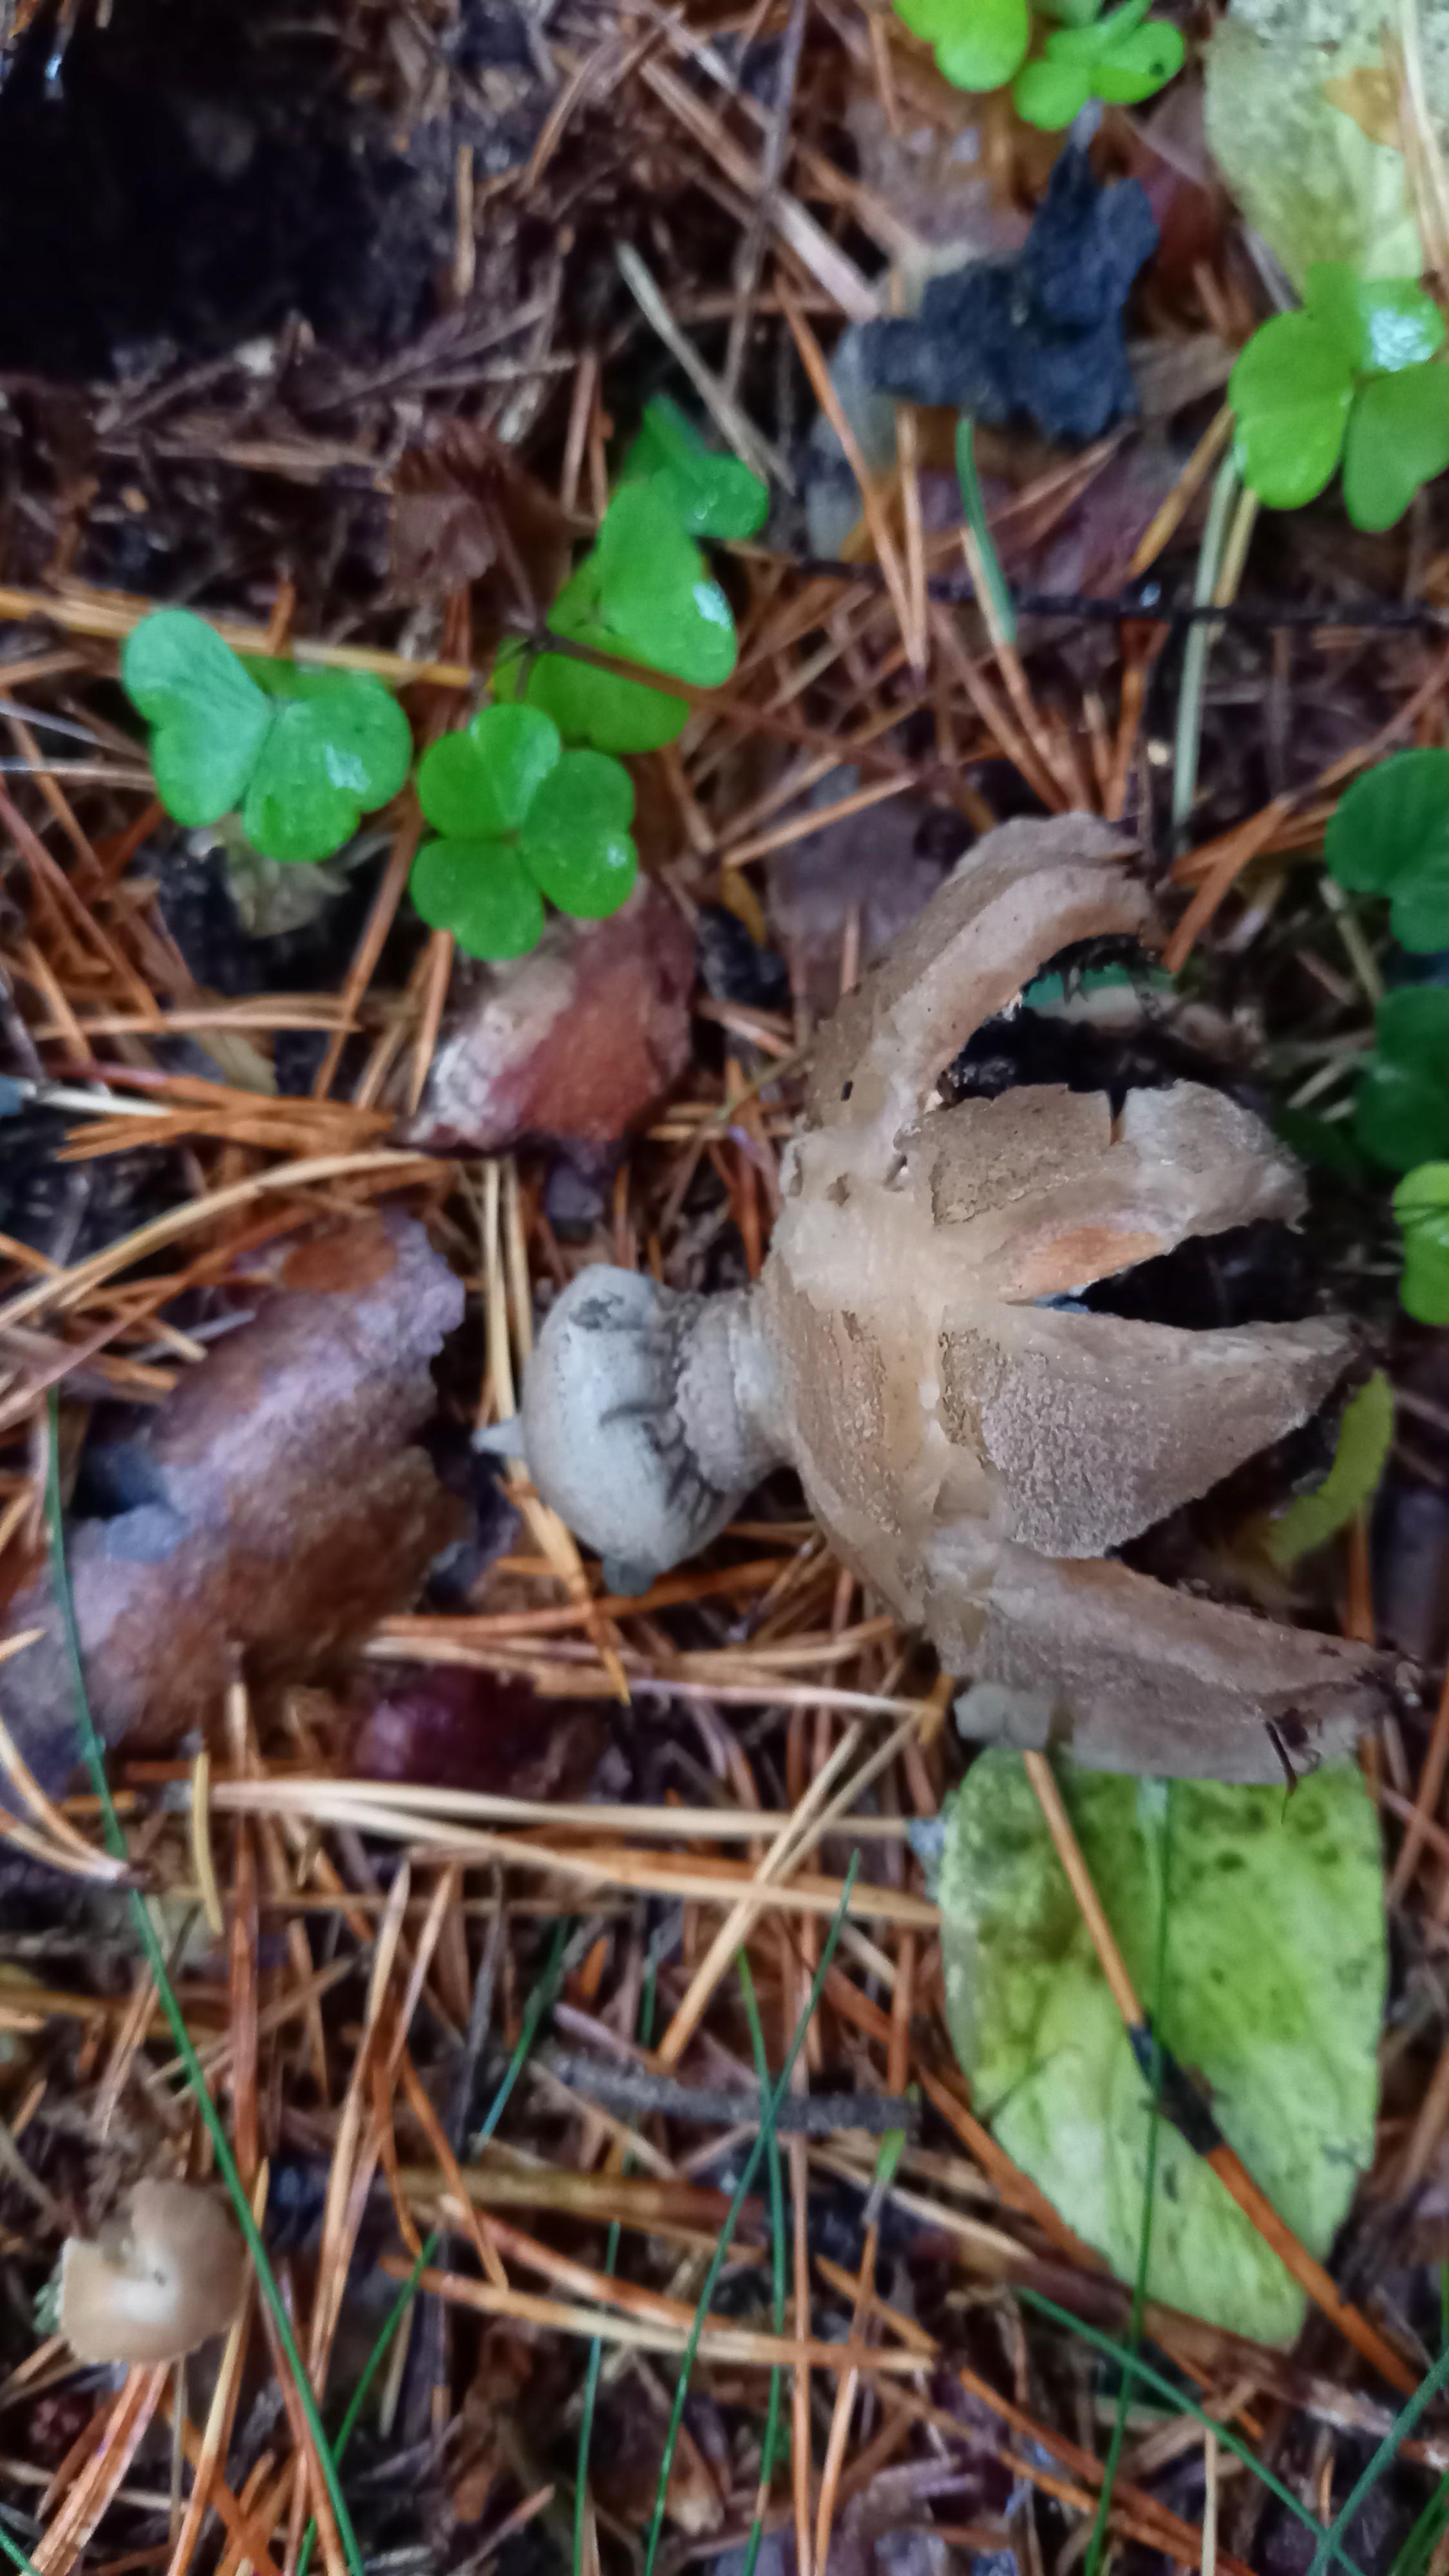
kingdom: Fungi
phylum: Basidiomycota
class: Agaricomycetes
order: Geastrales
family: Geastraceae
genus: Geastrum
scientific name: Geastrum striatum
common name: krave-stjernebold
